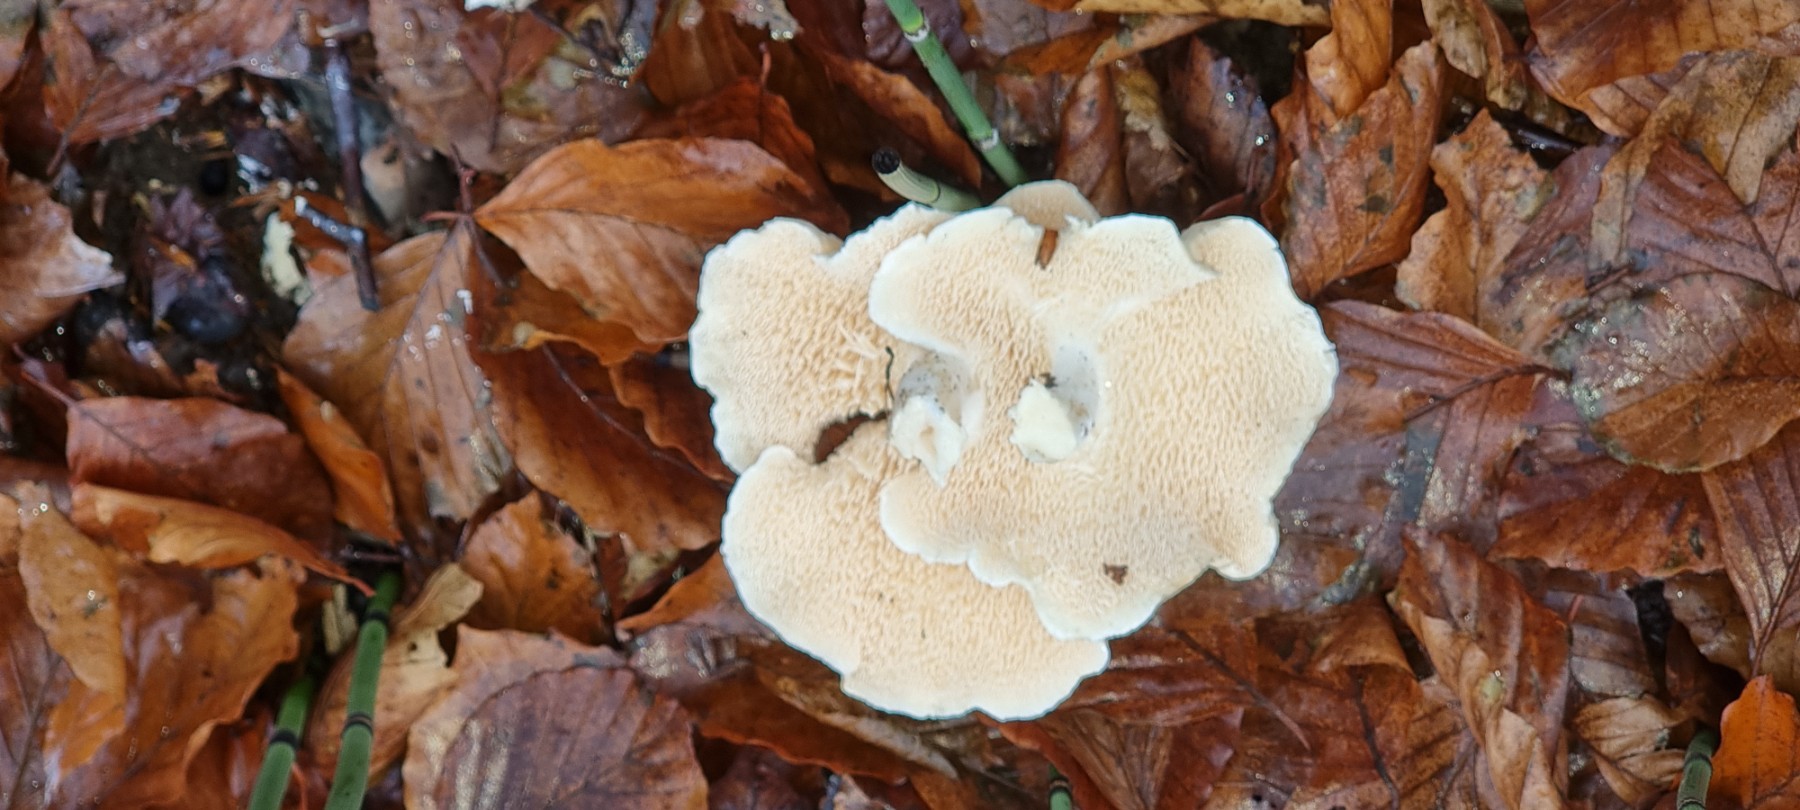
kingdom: Fungi
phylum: Basidiomycota
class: Agaricomycetes
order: Cantharellales
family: Hydnaceae
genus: Hydnum
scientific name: Hydnum
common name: pigsvamp
